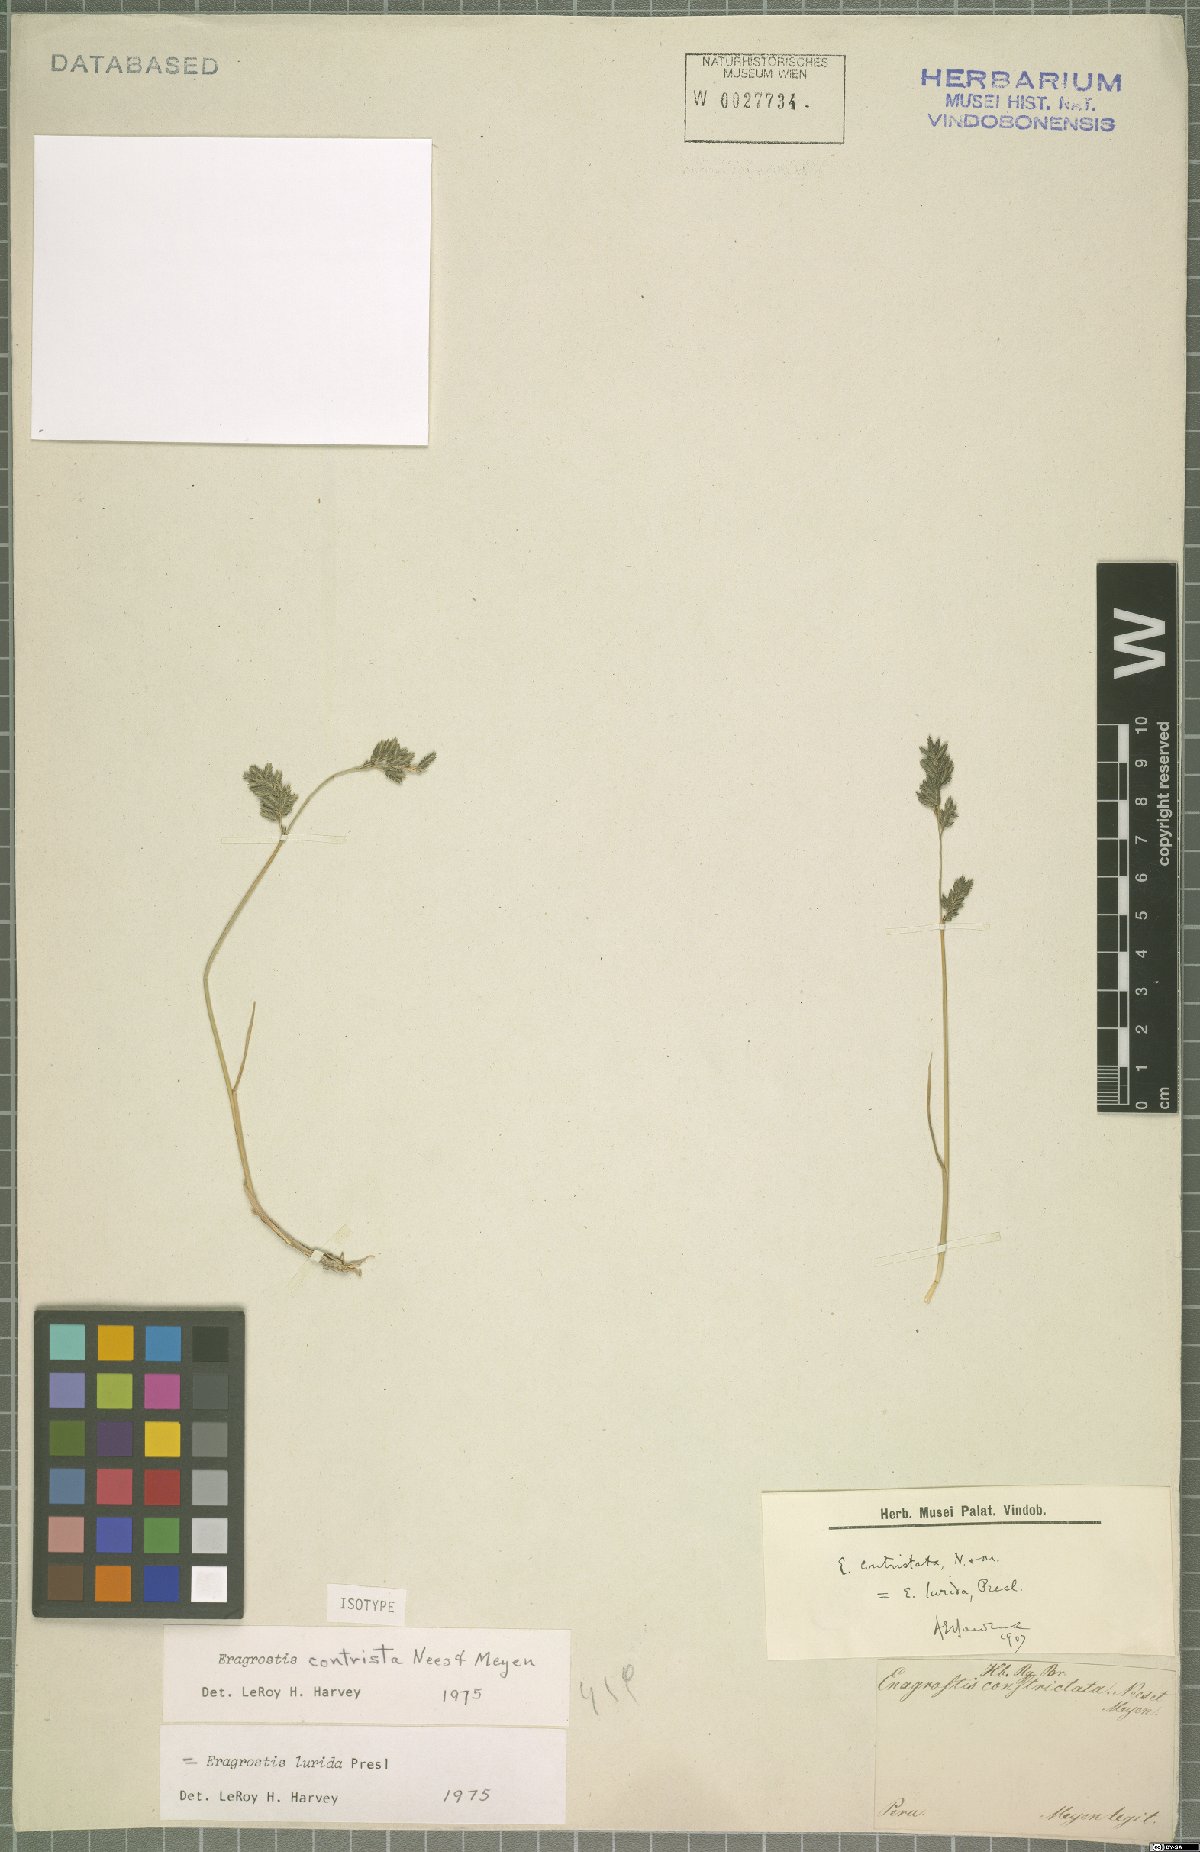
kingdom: Plantae
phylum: Tracheophyta
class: Liliopsida
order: Poales
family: Poaceae
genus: Eragrostis
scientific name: Eragrostis lurida
